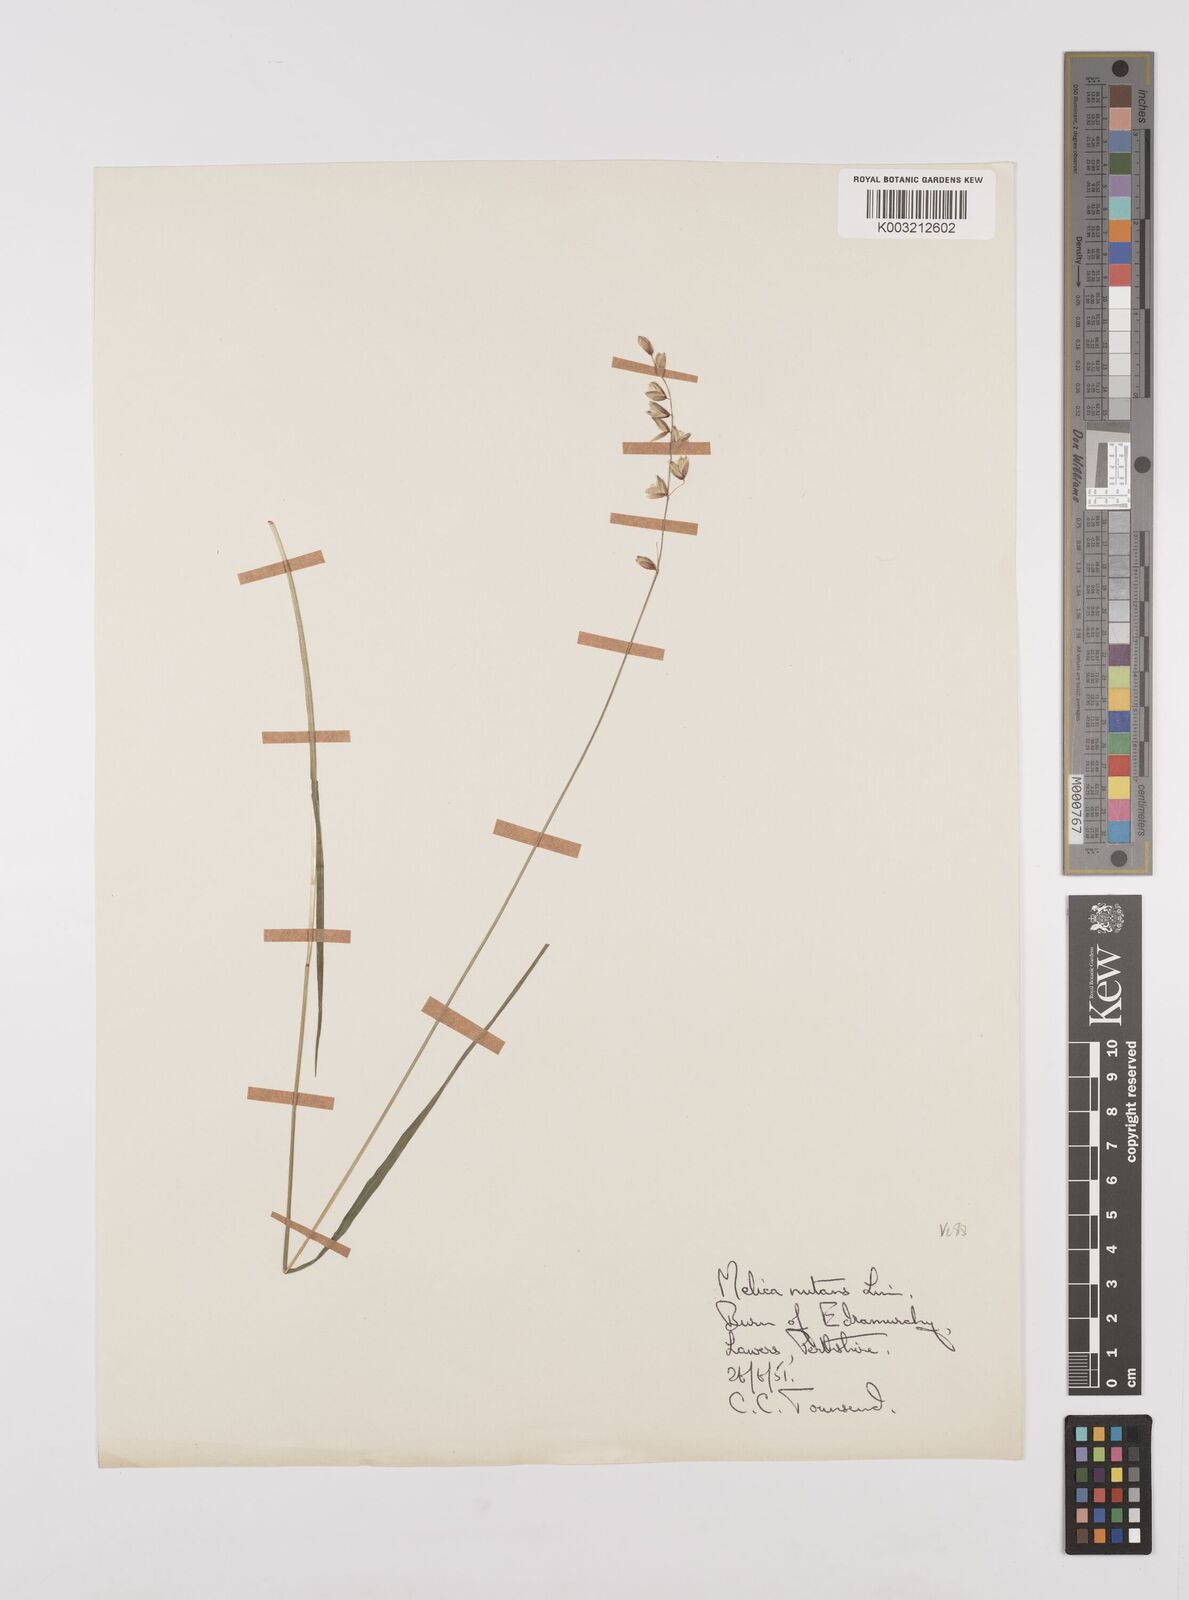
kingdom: Plantae
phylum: Tracheophyta
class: Liliopsida
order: Poales
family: Poaceae
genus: Melica
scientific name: Melica
